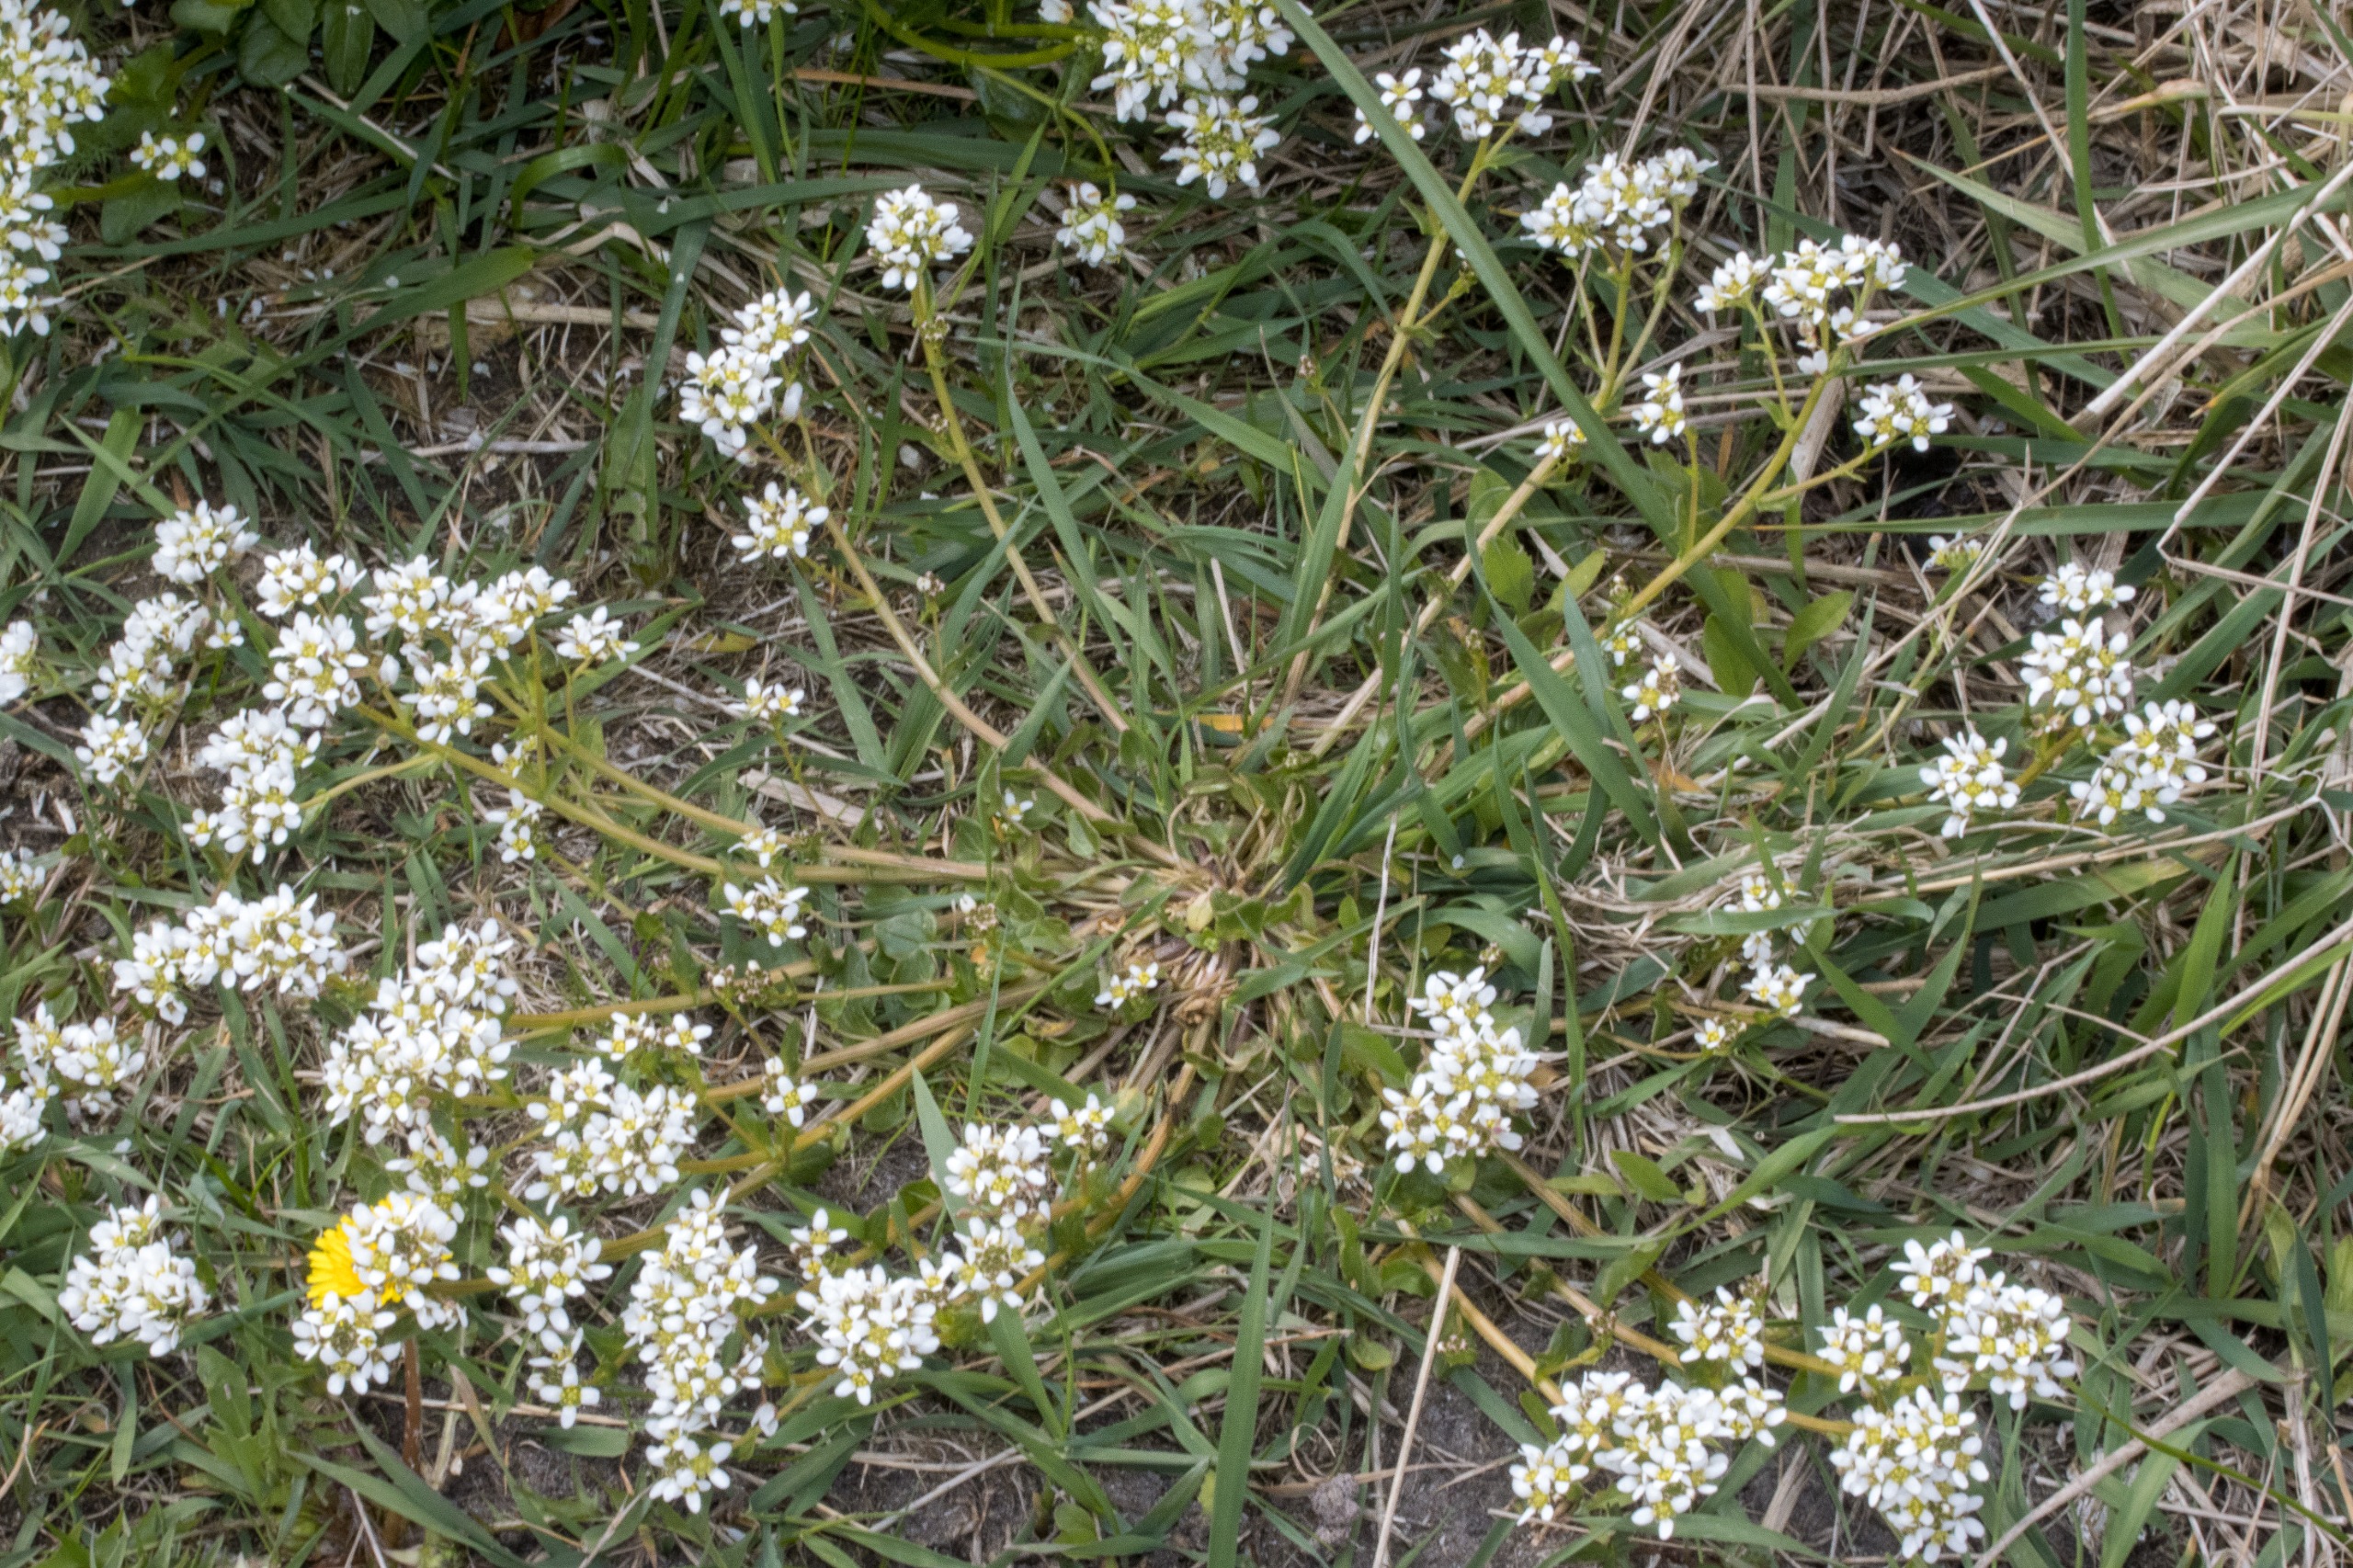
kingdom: Plantae
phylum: Tracheophyta
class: Magnoliopsida
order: Brassicales
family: Brassicaceae
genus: Cochlearia
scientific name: Cochlearia anglica
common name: Engelsk kokleare
